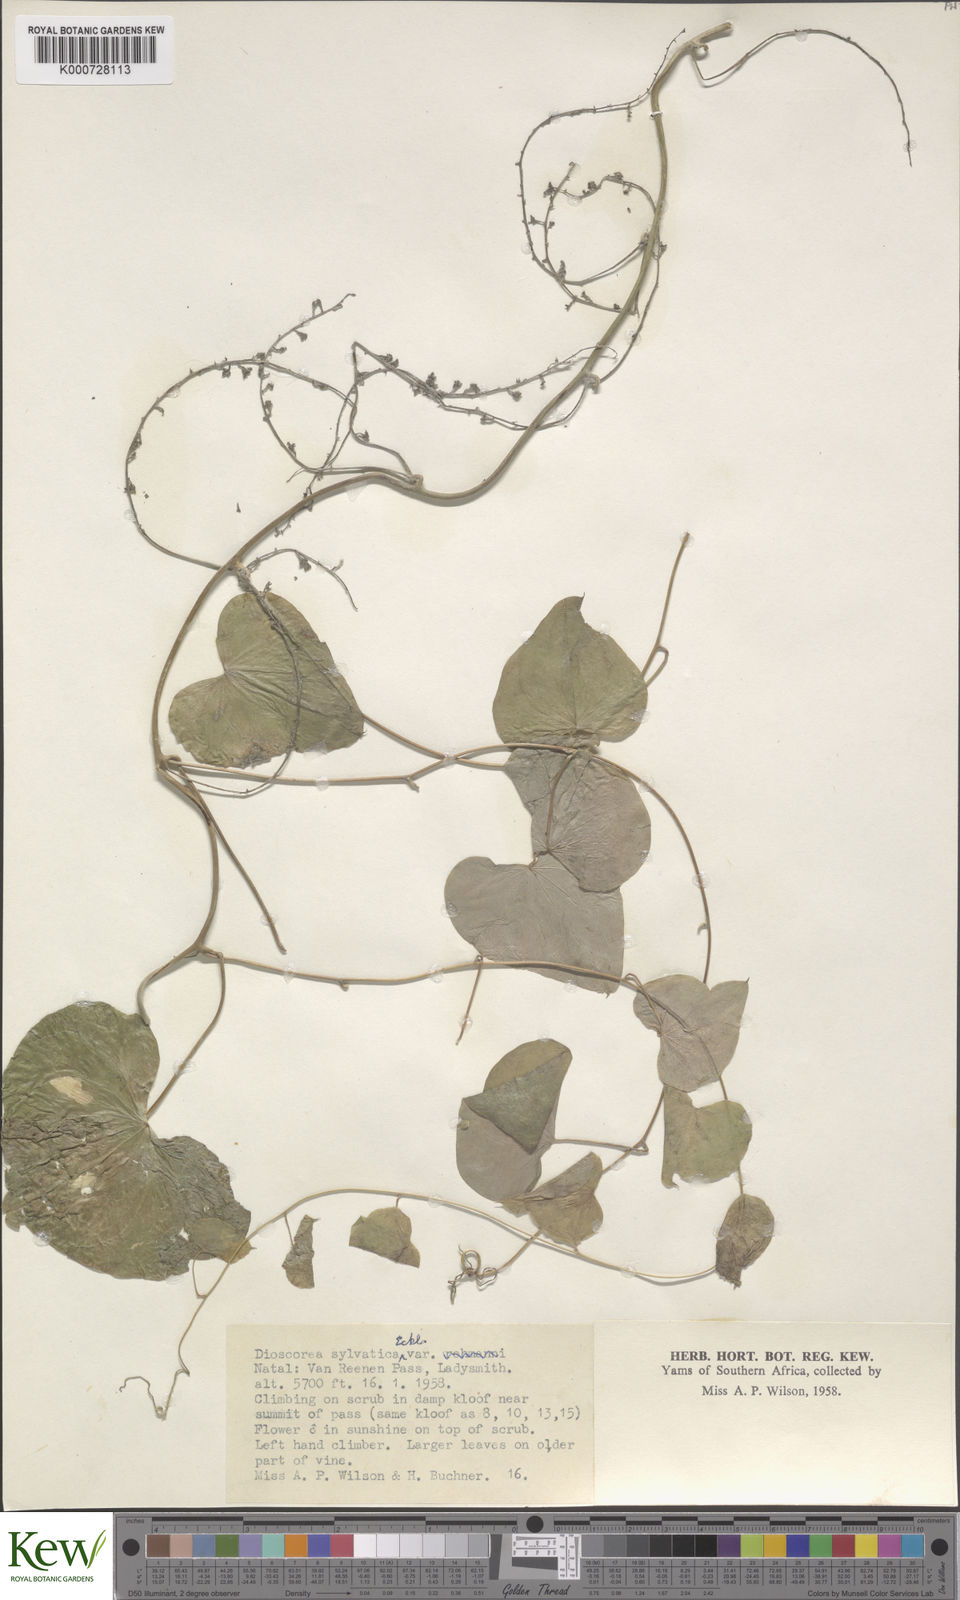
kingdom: Plantae
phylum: Tracheophyta
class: Liliopsida
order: Dioscoreales
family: Dioscoreaceae
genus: Dioscorea
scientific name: Dioscorea sylvatica
